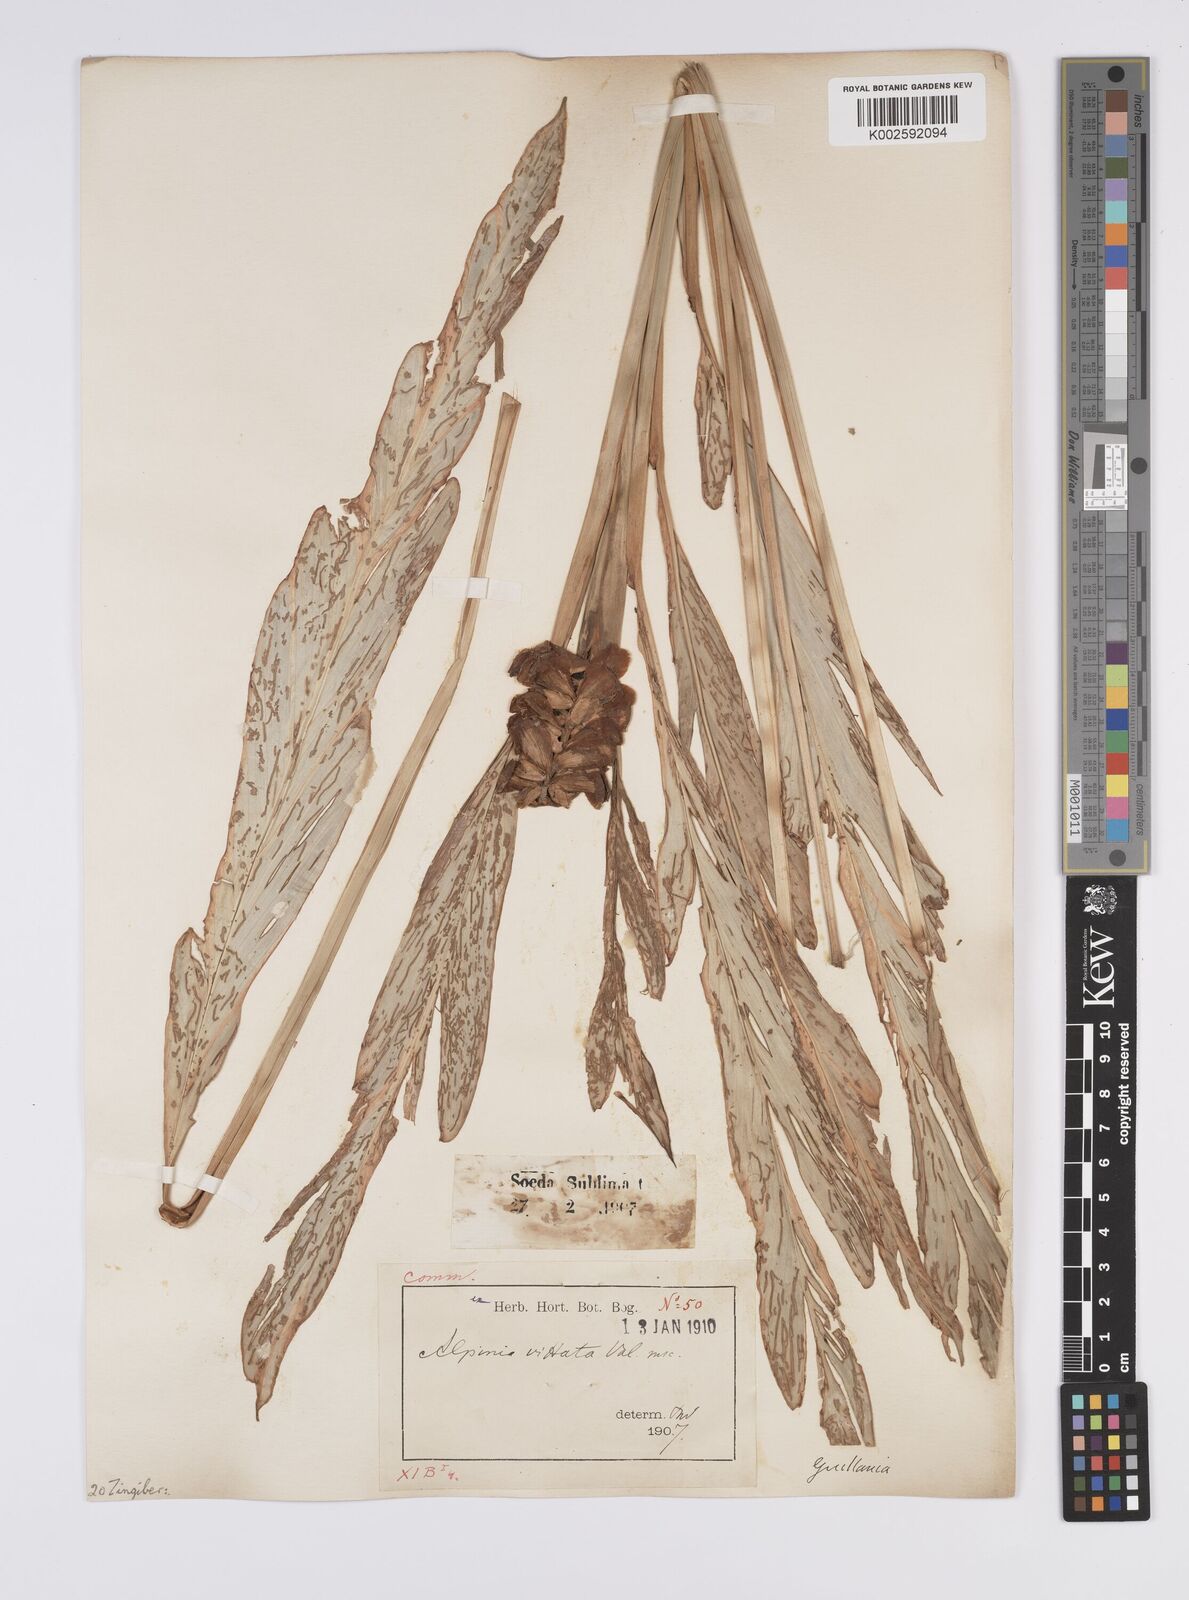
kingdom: Plantae
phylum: Tracheophyta
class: Liliopsida
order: Zingiberales
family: Zingiberaceae
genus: Alpinia
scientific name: Alpinia
